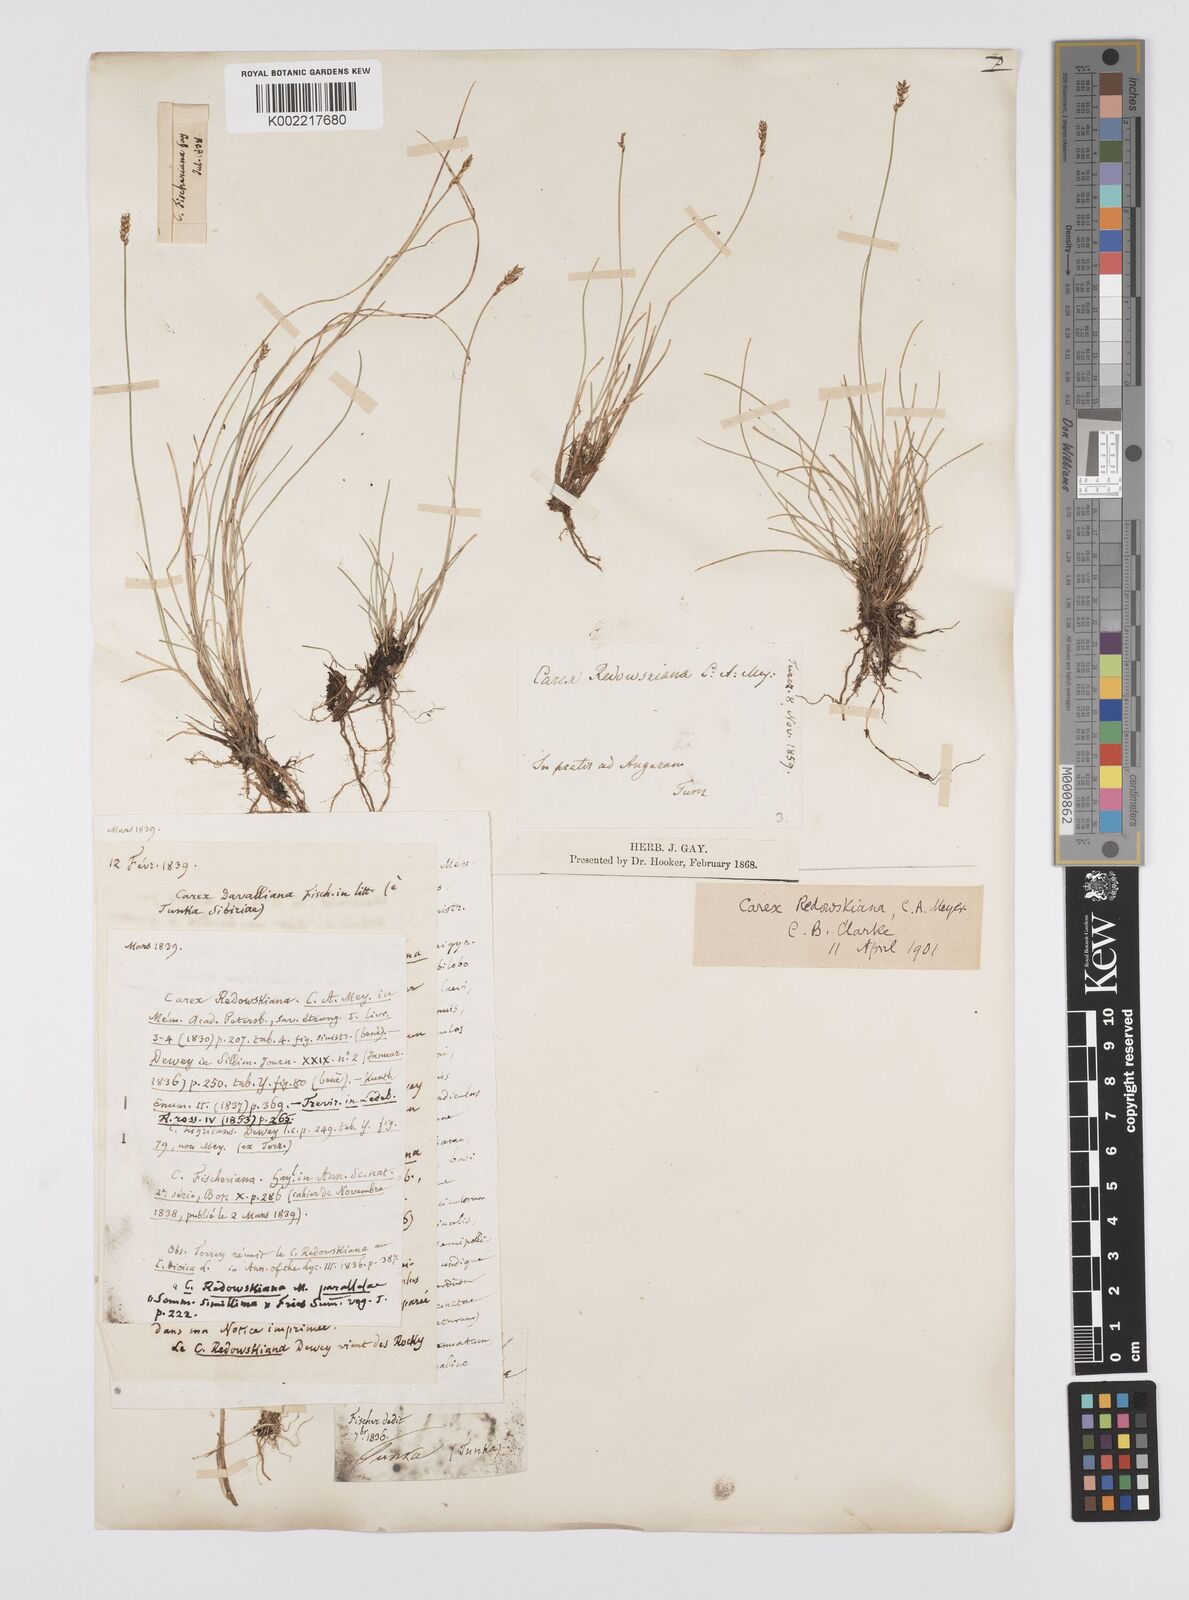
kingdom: Plantae
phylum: Tracheophyta
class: Liliopsida
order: Poales
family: Cyperaceae
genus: Carex
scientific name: Carex parallela
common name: Parallel sedge
